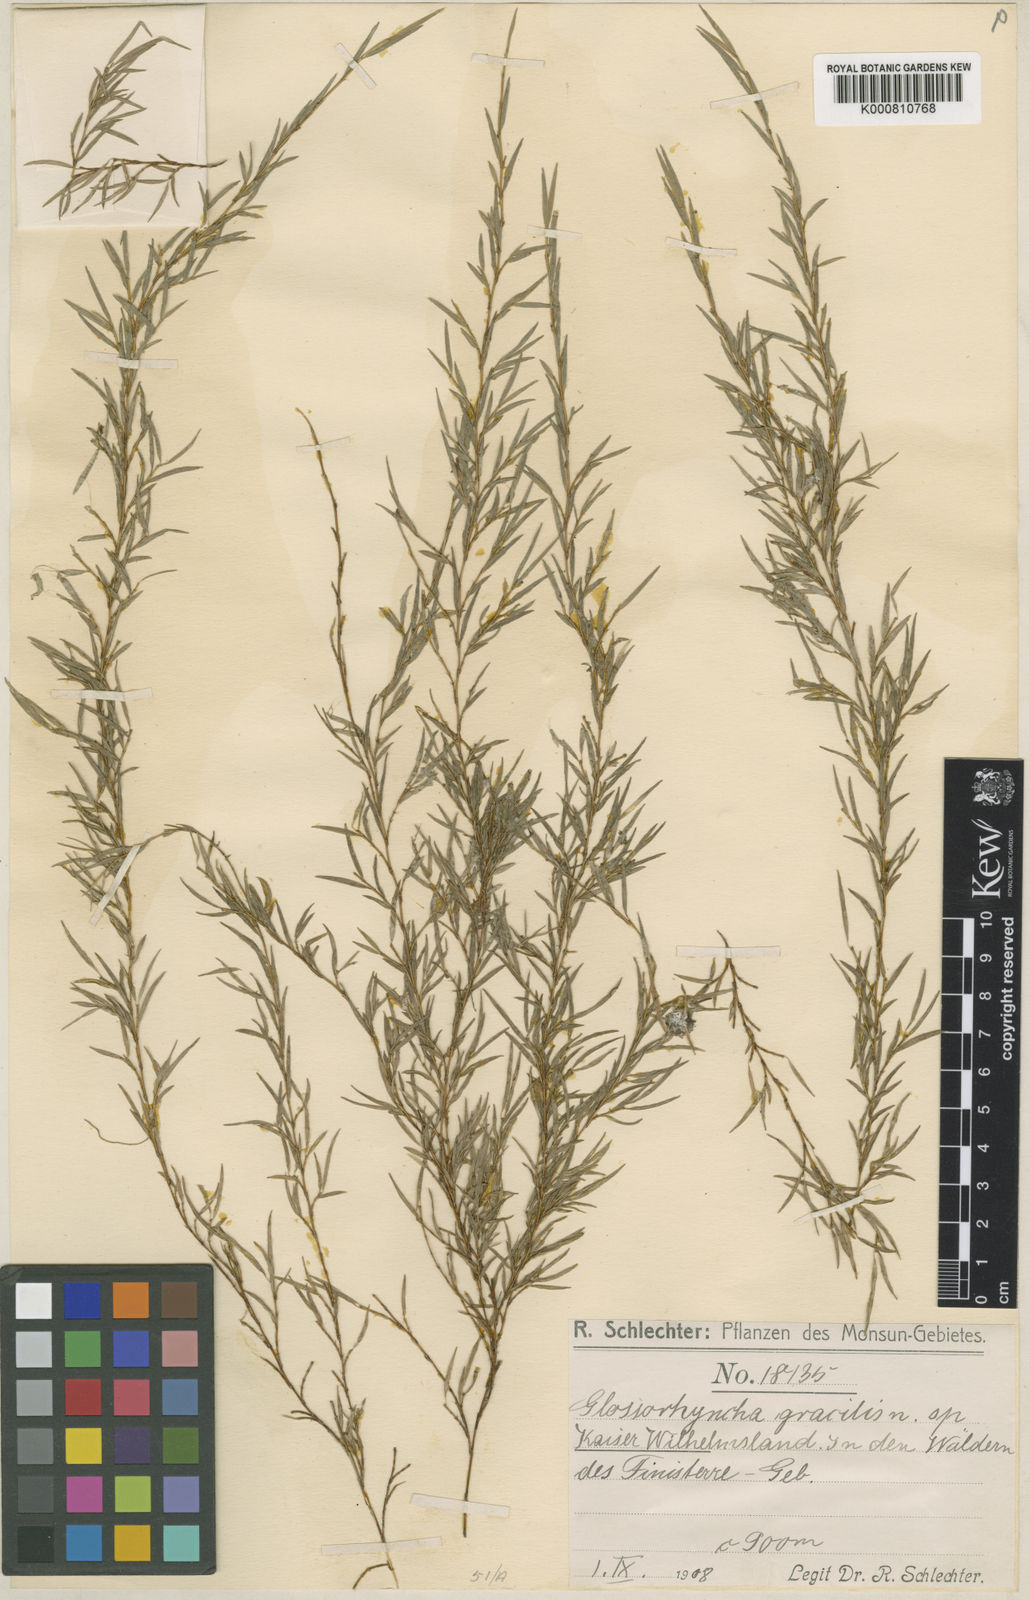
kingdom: Plantae
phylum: Tracheophyta
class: Liliopsida
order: Asparagales
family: Orchidaceae
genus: Glomera
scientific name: Glomera dependens
